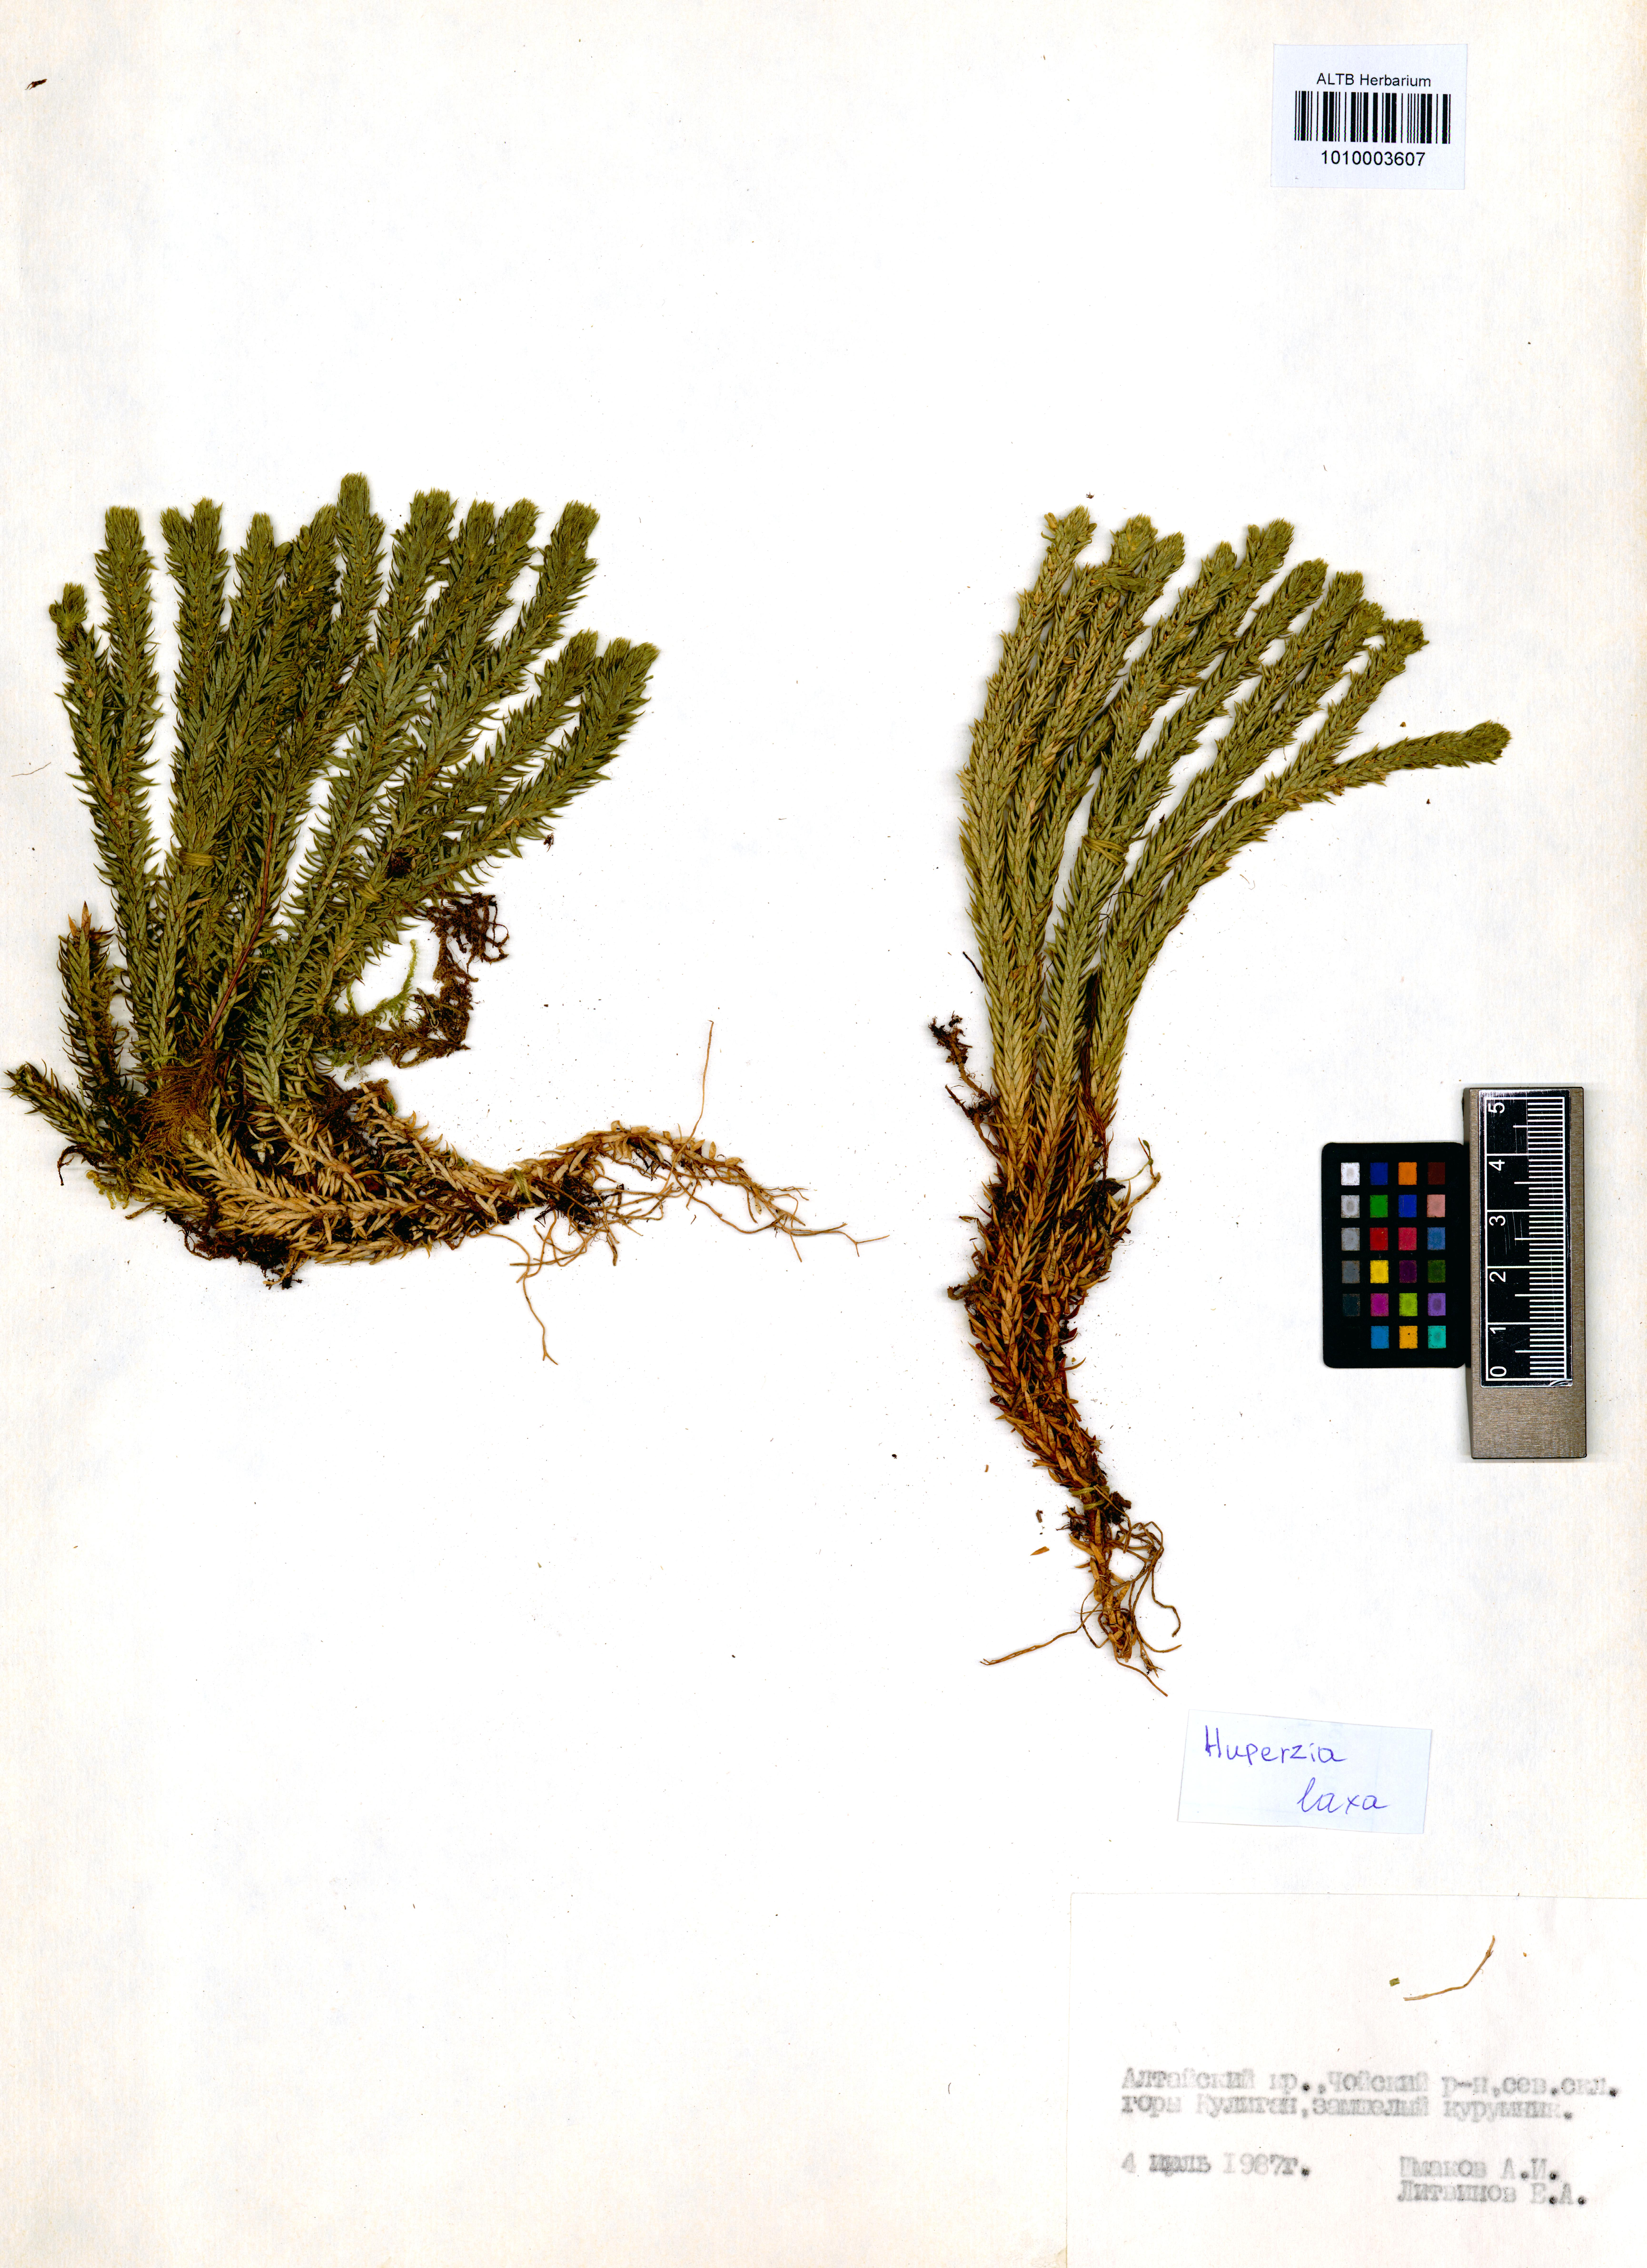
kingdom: Plantae
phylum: Tracheophyta
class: Lycopodiopsida
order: Lycopodiales
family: Lycopodiaceae
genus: Phlegmariurus
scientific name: Phlegmariurus carinatus
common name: Keeled tassel-fern
